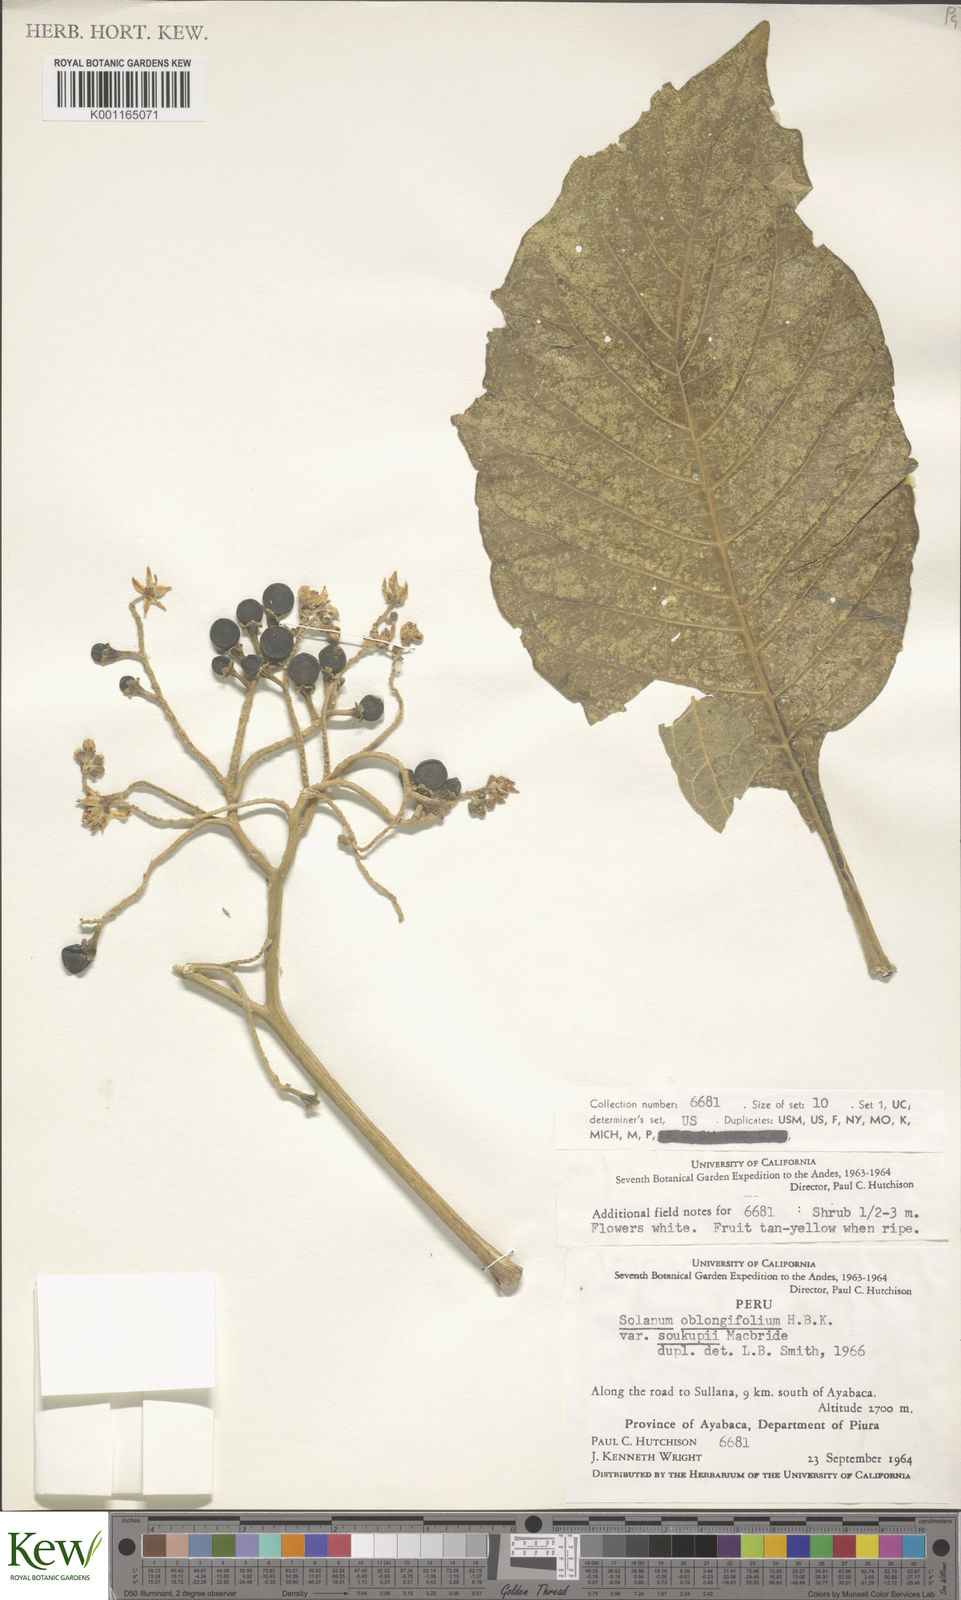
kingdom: Plantae
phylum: Tracheophyta
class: Magnoliopsida
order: Solanales
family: Solanaceae
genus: Solanum
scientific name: Solanum oblongifolium
